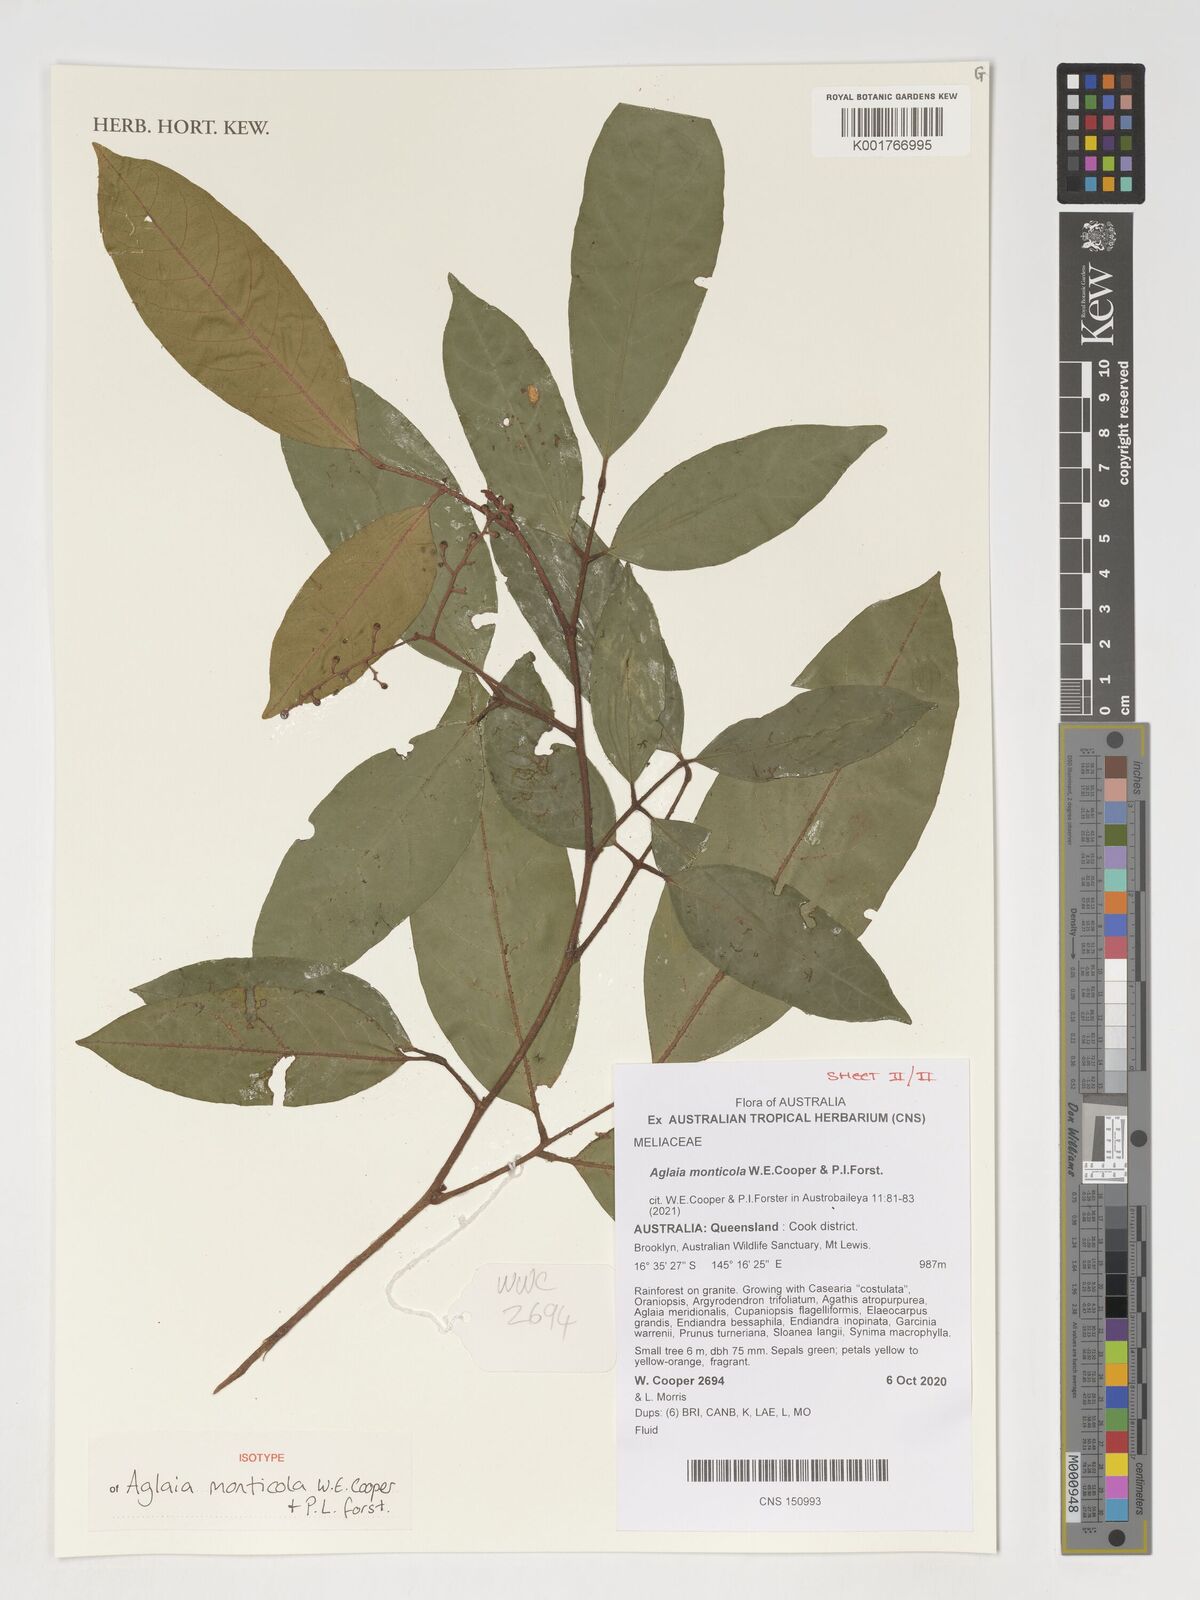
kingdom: Plantae
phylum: Tracheophyta
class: Magnoliopsida
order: Sapindales
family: Meliaceae
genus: Aglaia
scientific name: Aglaia
